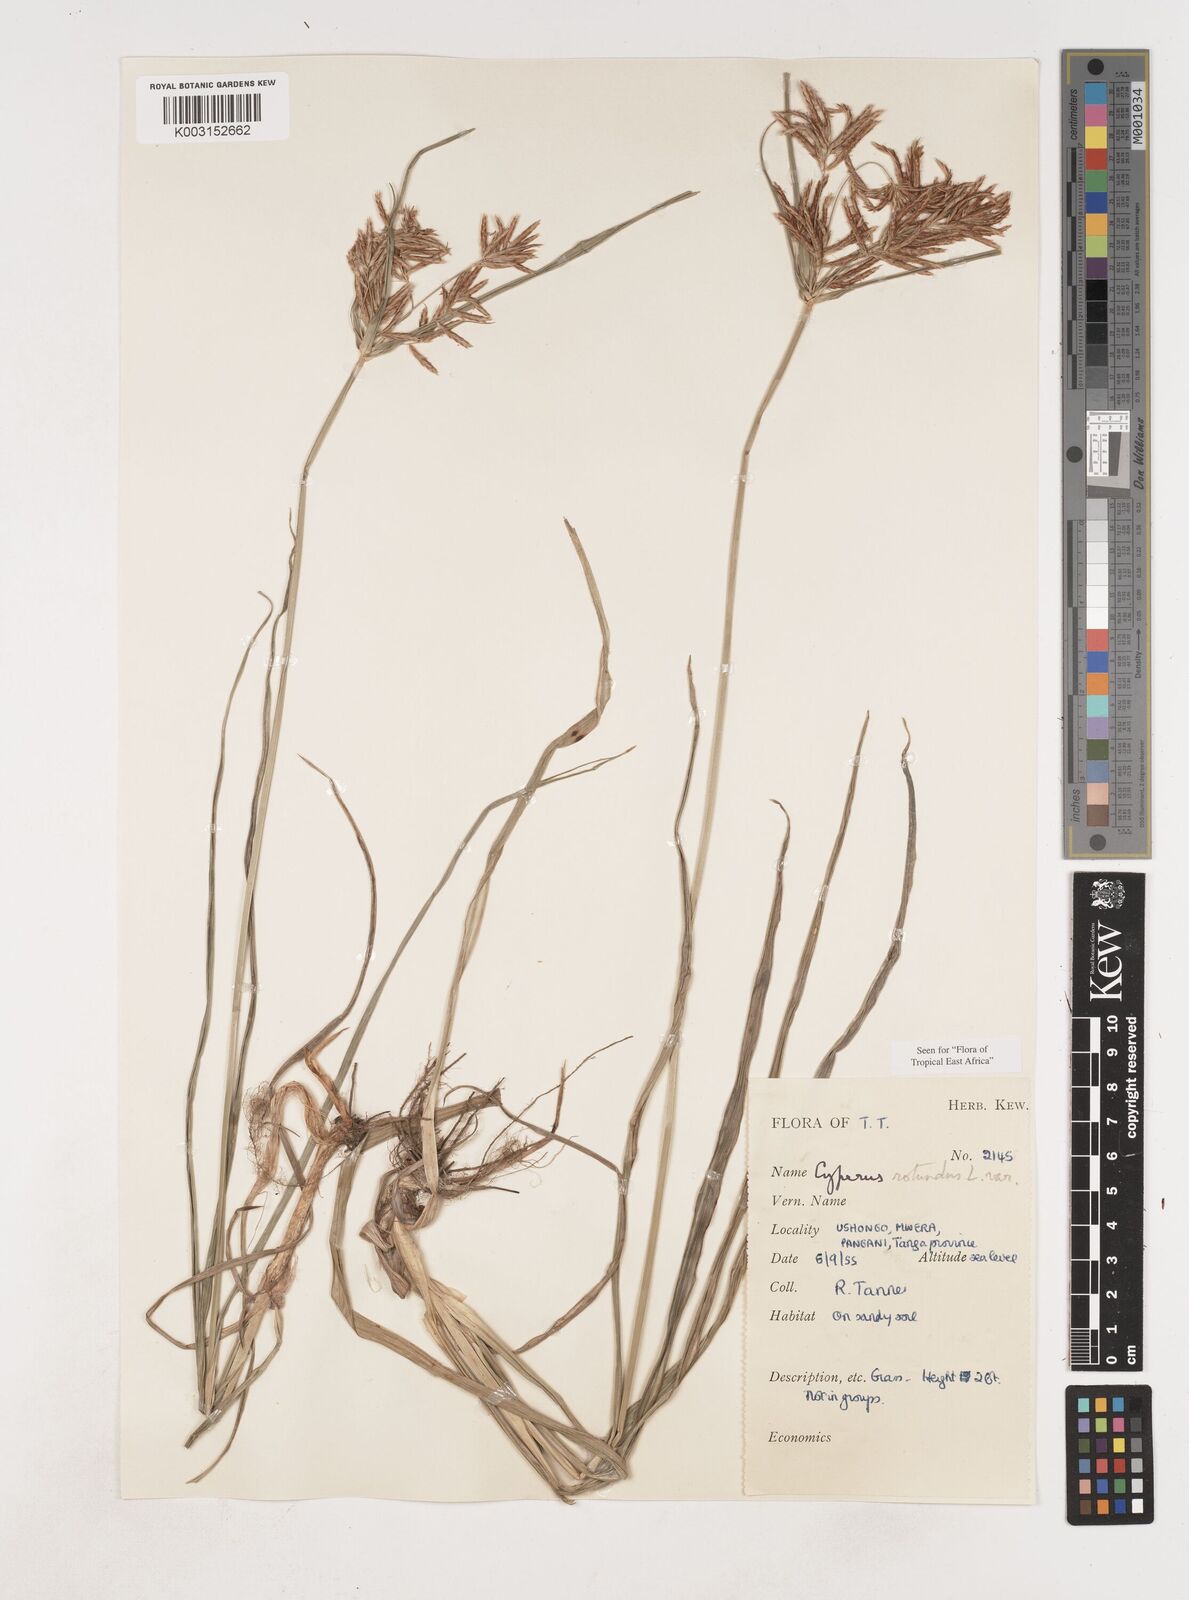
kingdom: Plantae
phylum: Tracheophyta
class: Liliopsida
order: Poales
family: Cyperaceae
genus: Cyperus
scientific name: Cyperus rotundus
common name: Nutgrass
